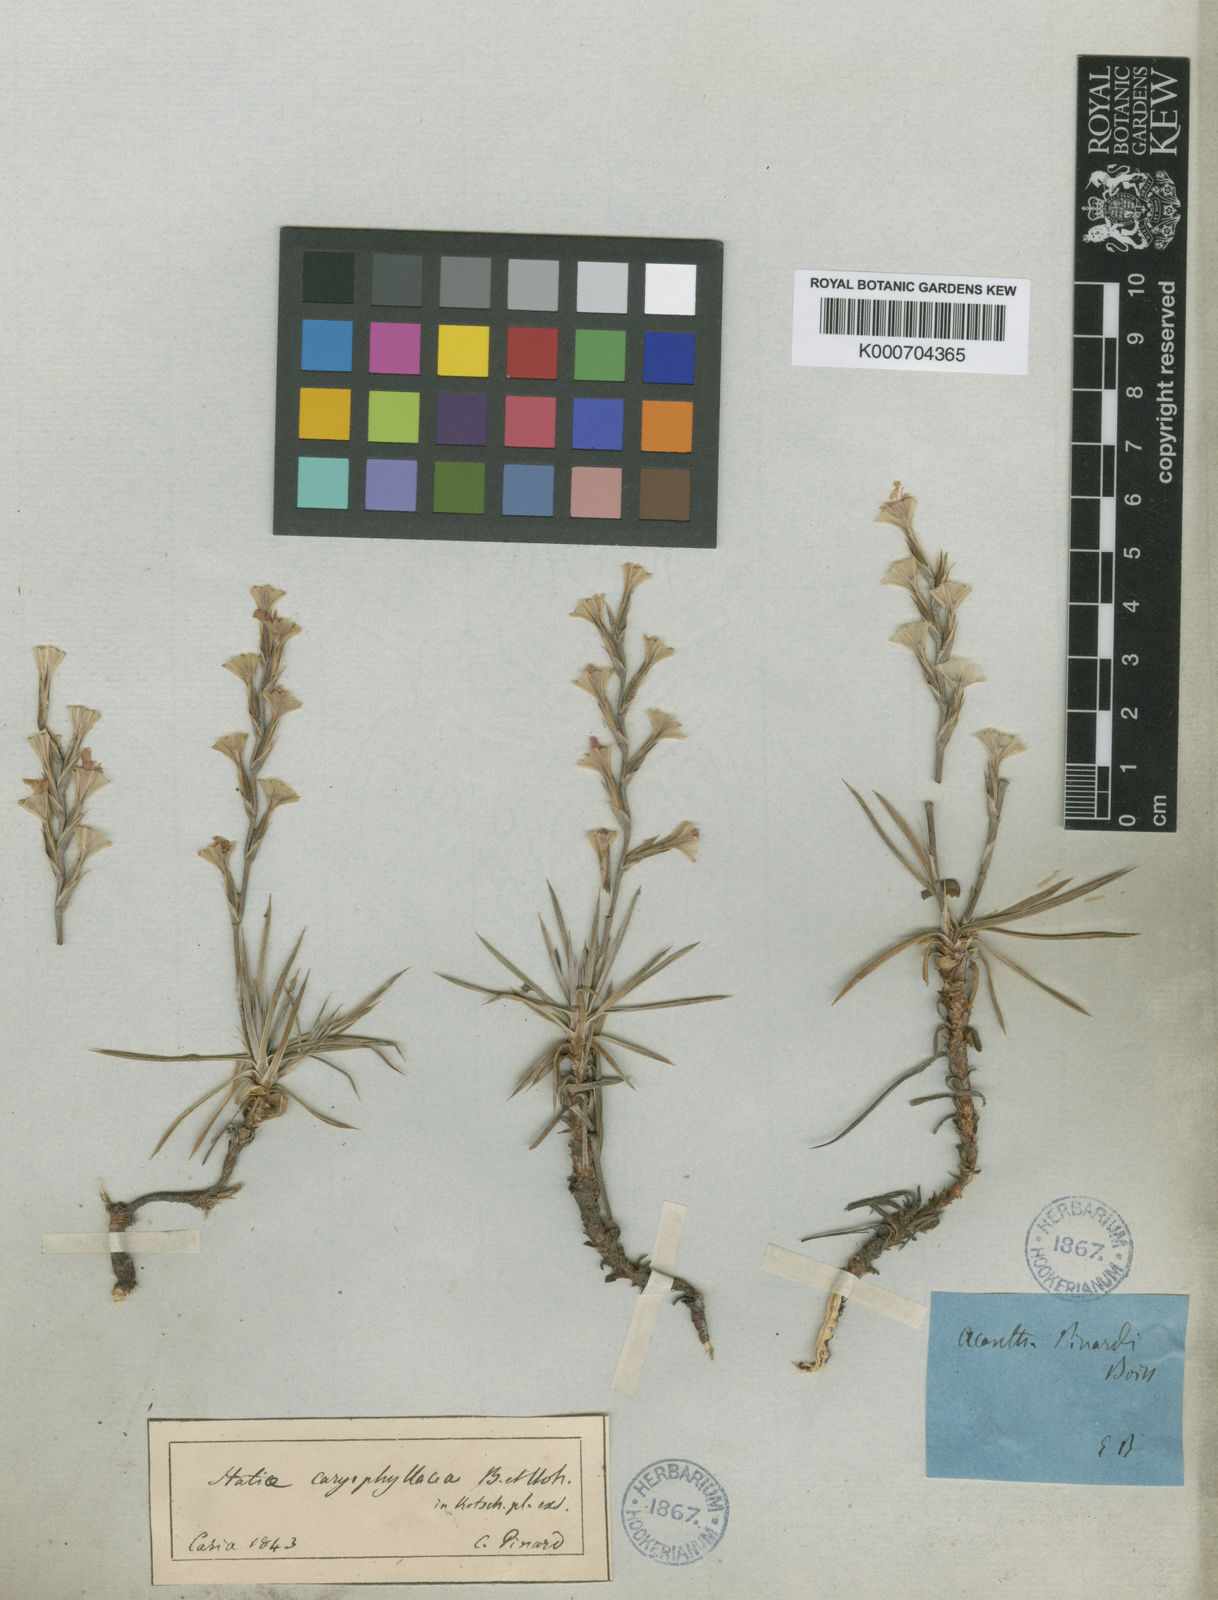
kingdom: Plantae
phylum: Tracheophyta
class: Magnoliopsida
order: Caryophyllales
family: Plumbaginaceae
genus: Acantholimon
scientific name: Acantholimon acerosum
